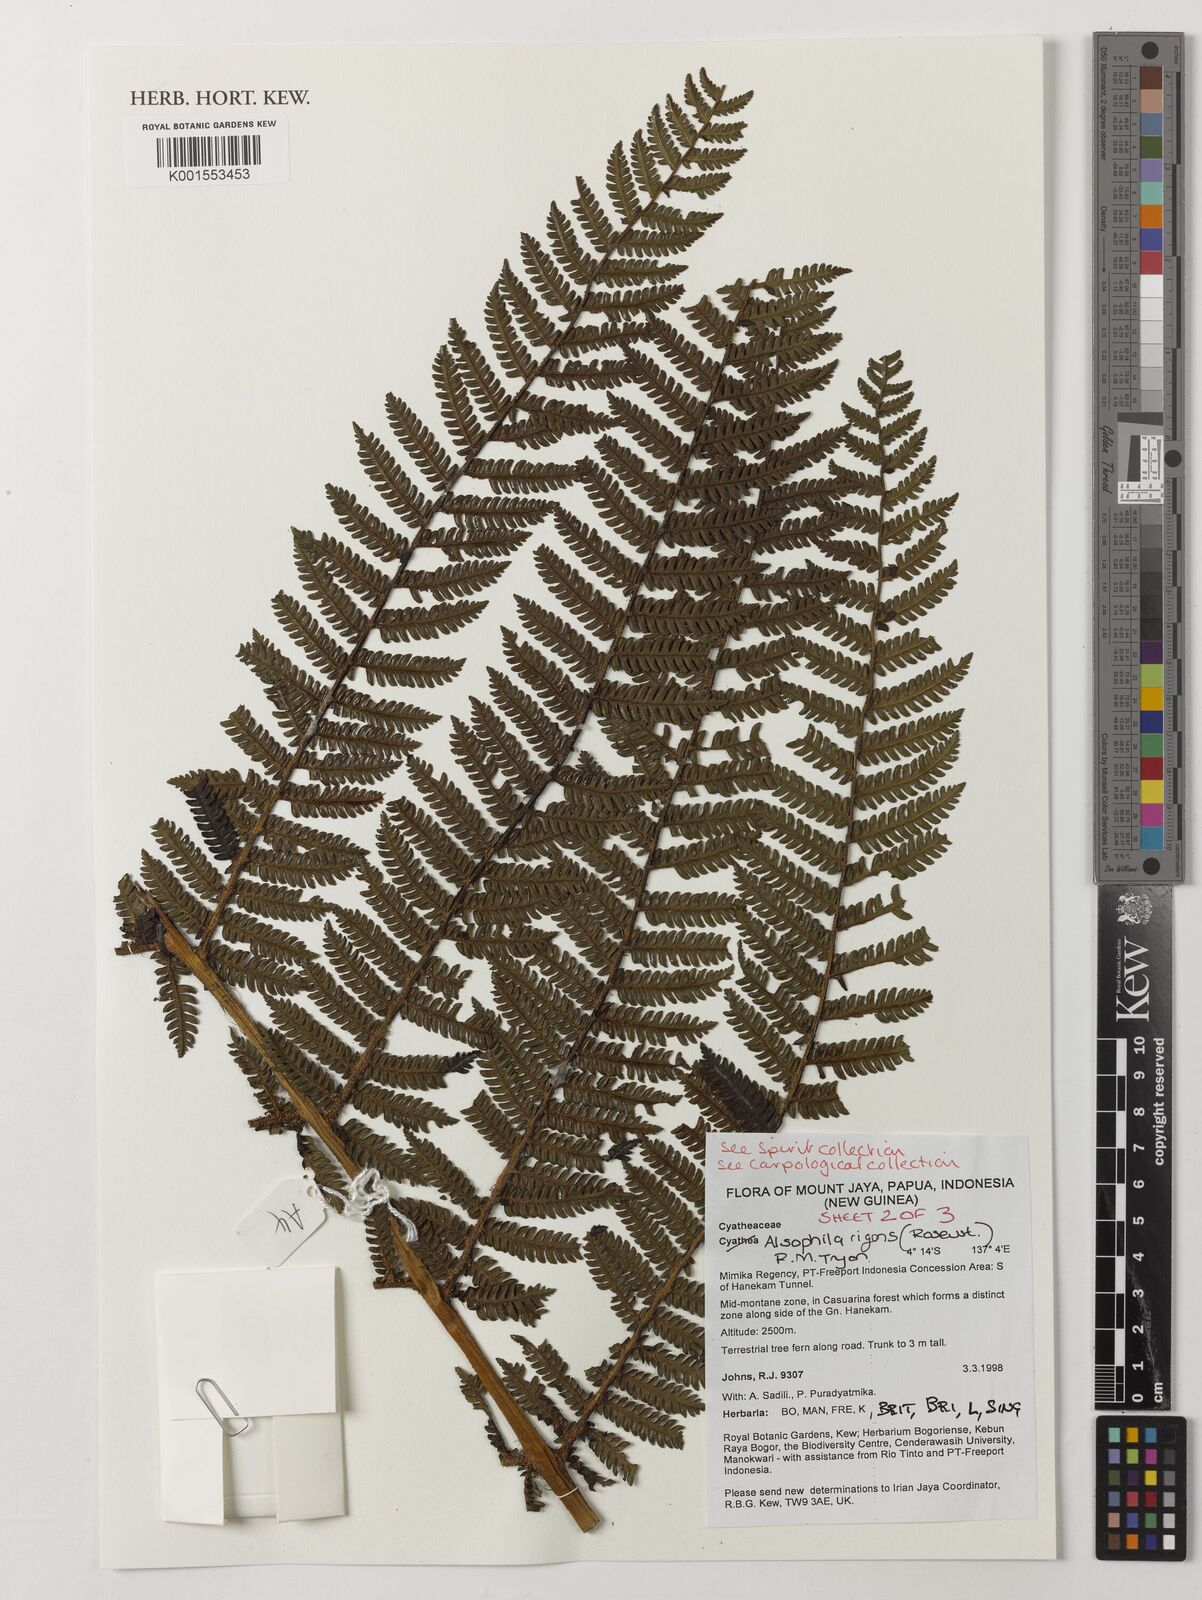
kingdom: Plantae
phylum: Tracheophyta
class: Polypodiopsida
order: Cyatheales
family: Cyatheaceae
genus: Alsophila
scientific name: Alsophila rigens
